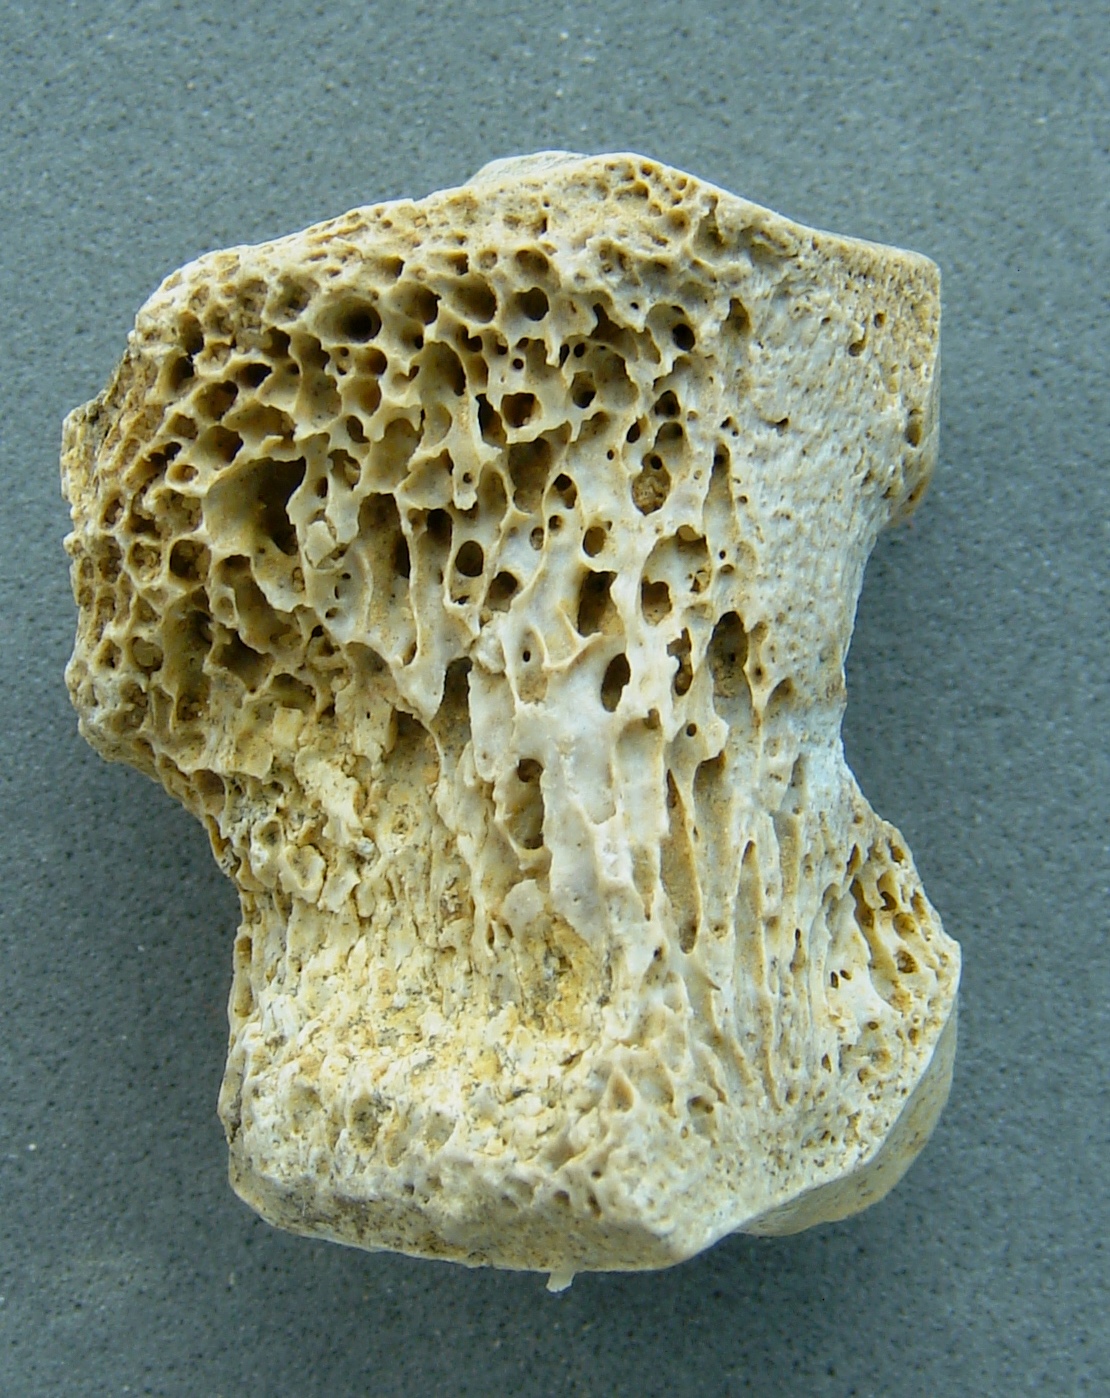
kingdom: Animalia
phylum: Chordata
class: Mammalia
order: Artiodactyla
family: Cervidae
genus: Cervus
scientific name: Cervus elaphus
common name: Red deer
